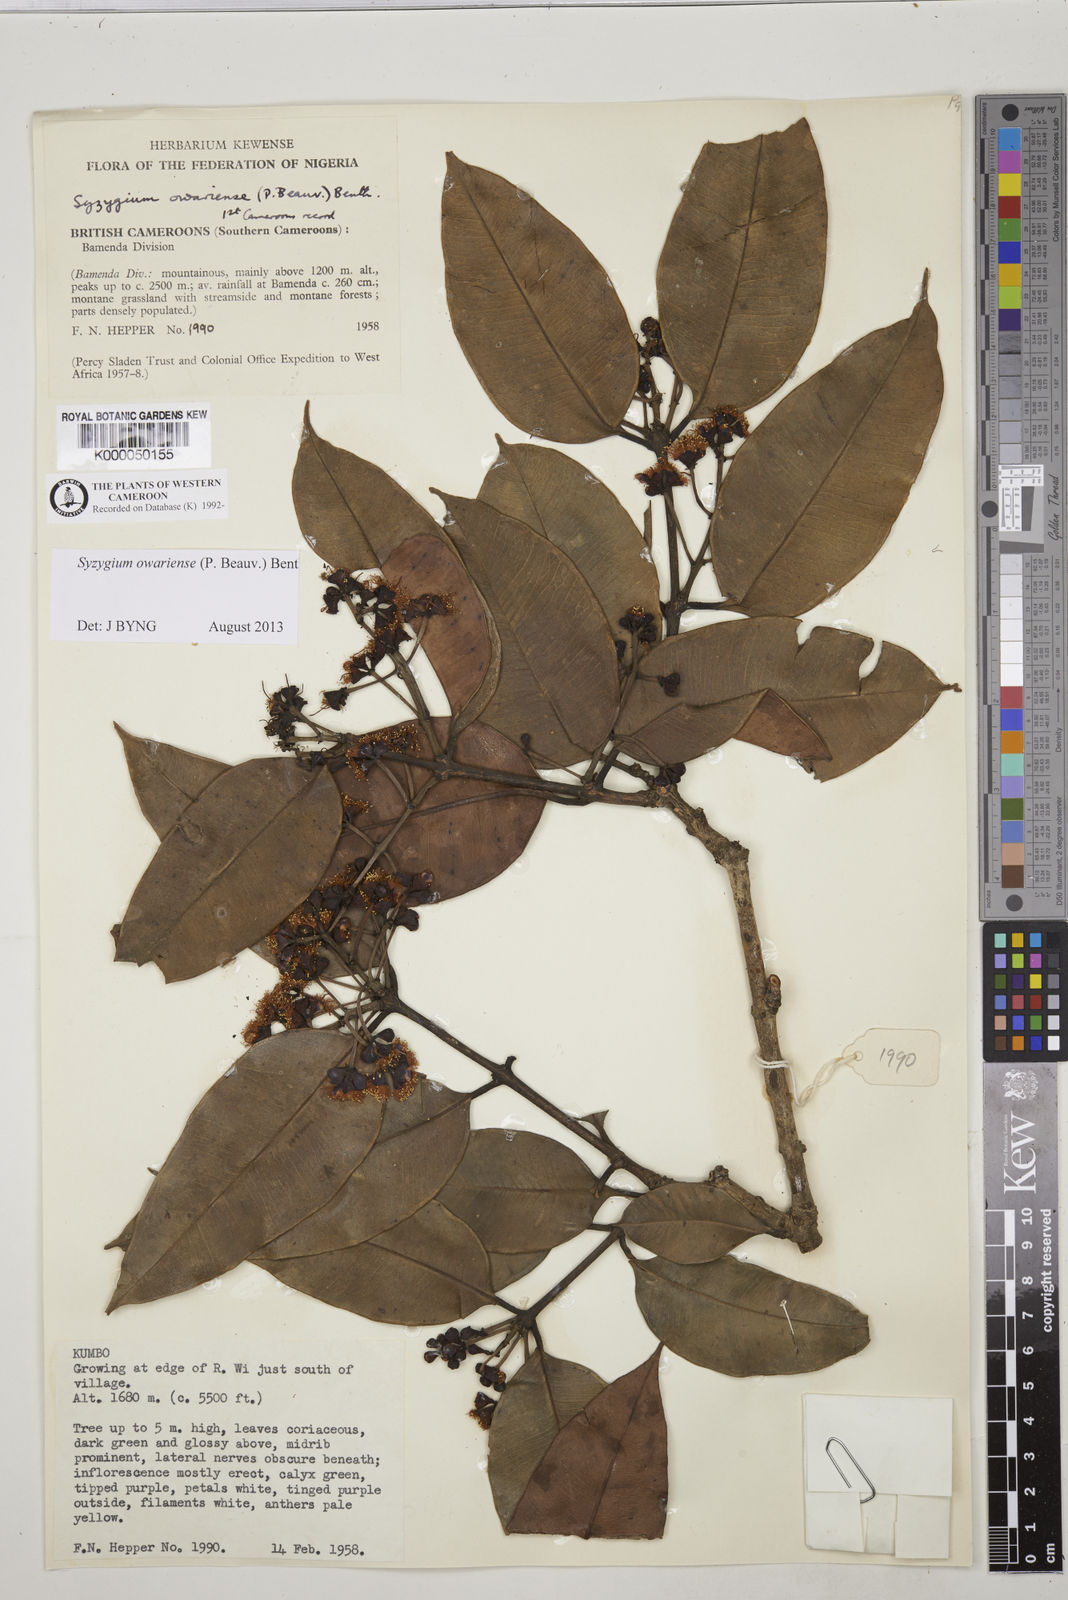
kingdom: Plantae
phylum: Tracheophyta
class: Magnoliopsida
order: Myrtales
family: Myrtaceae
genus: Syzygium
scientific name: Syzygium owariense
